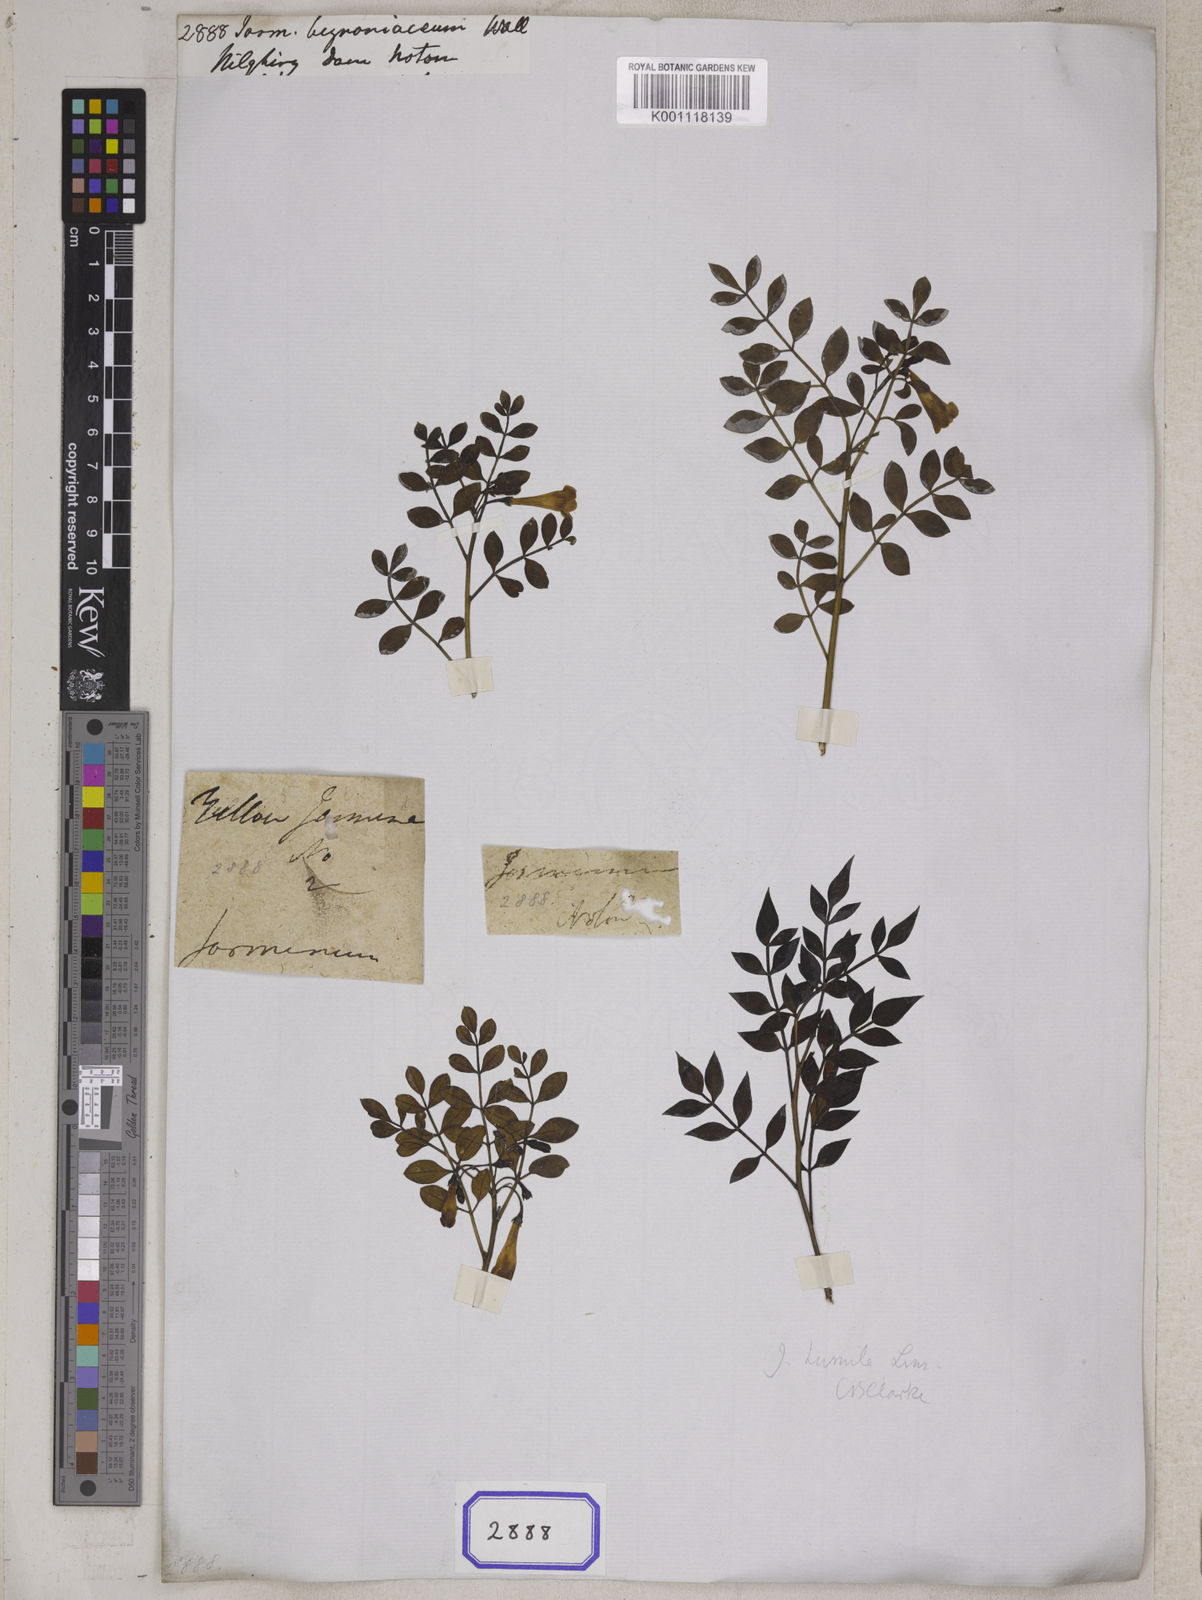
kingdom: Plantae
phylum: Tracheophyta
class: Magnoliopsida
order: Lamiales
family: Oleaceae
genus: Jasminum
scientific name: Jasminum
